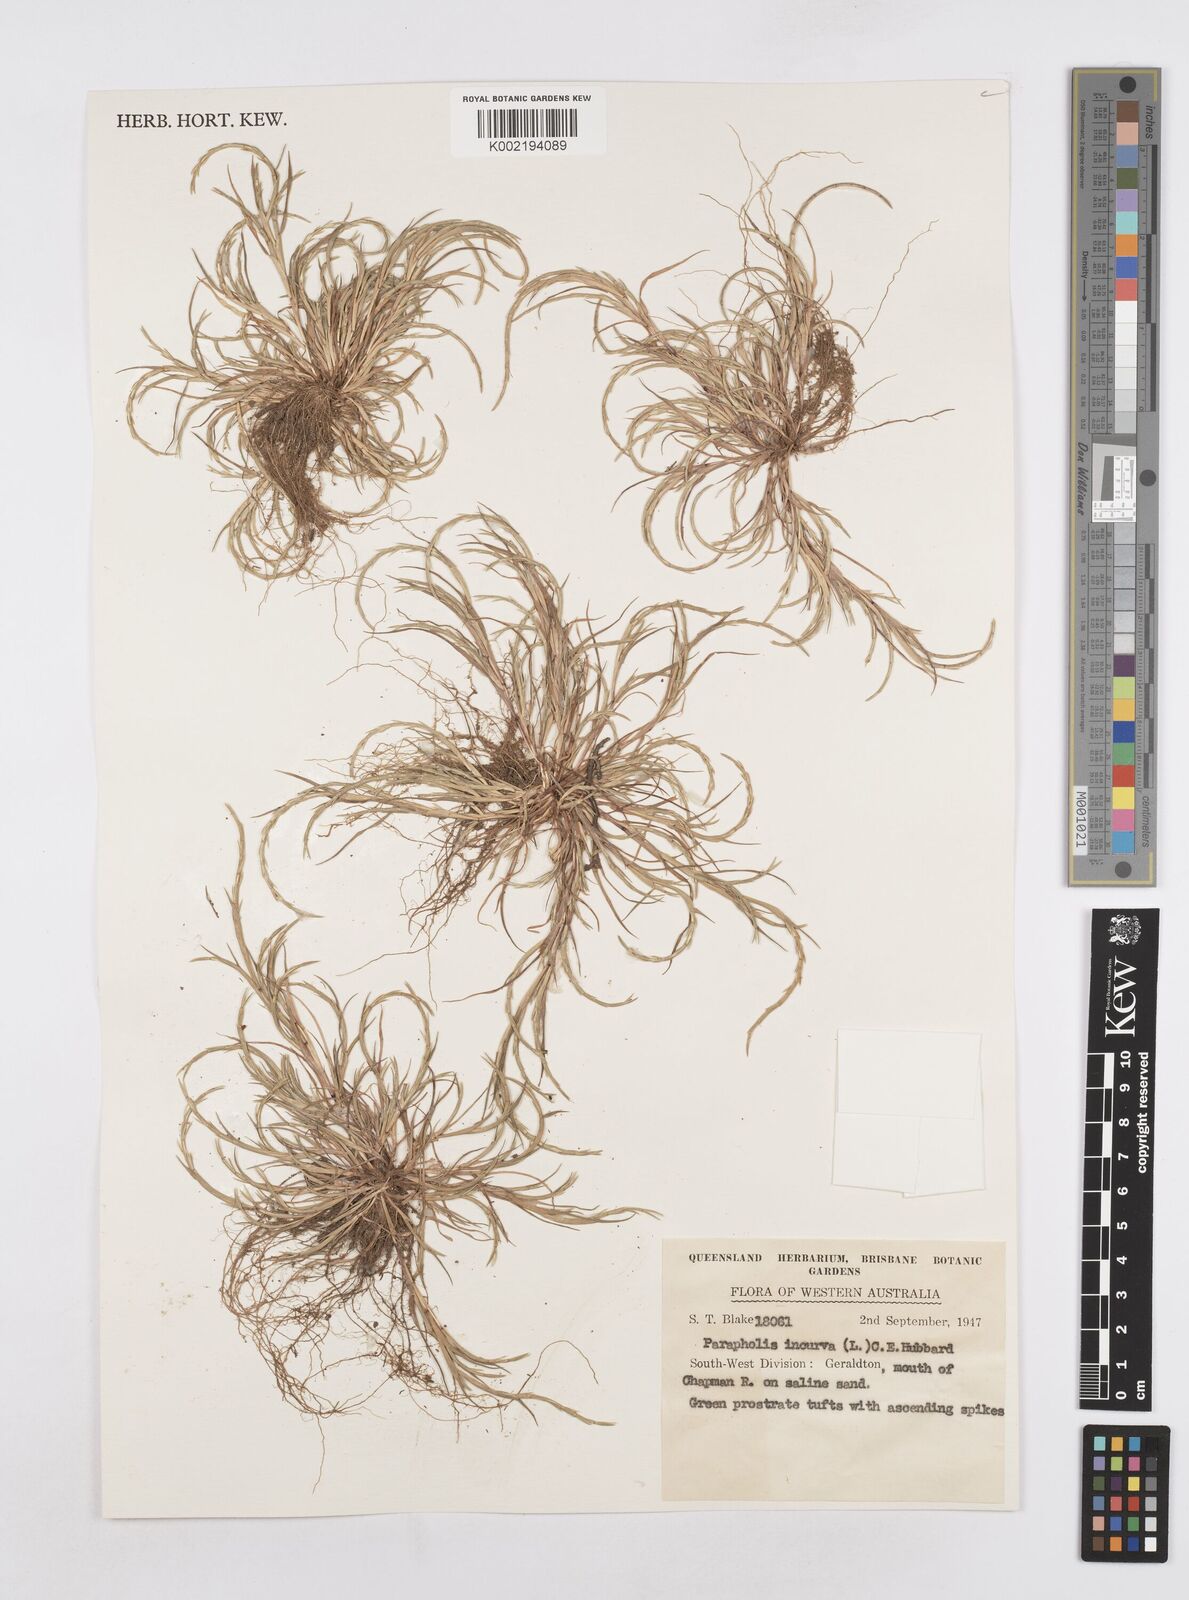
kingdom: Plantae
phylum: Tracheophyta
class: Liliopsida
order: Poales
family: Poaceae
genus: Parapholis
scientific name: Parapholis strigosa
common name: Hard-grass
